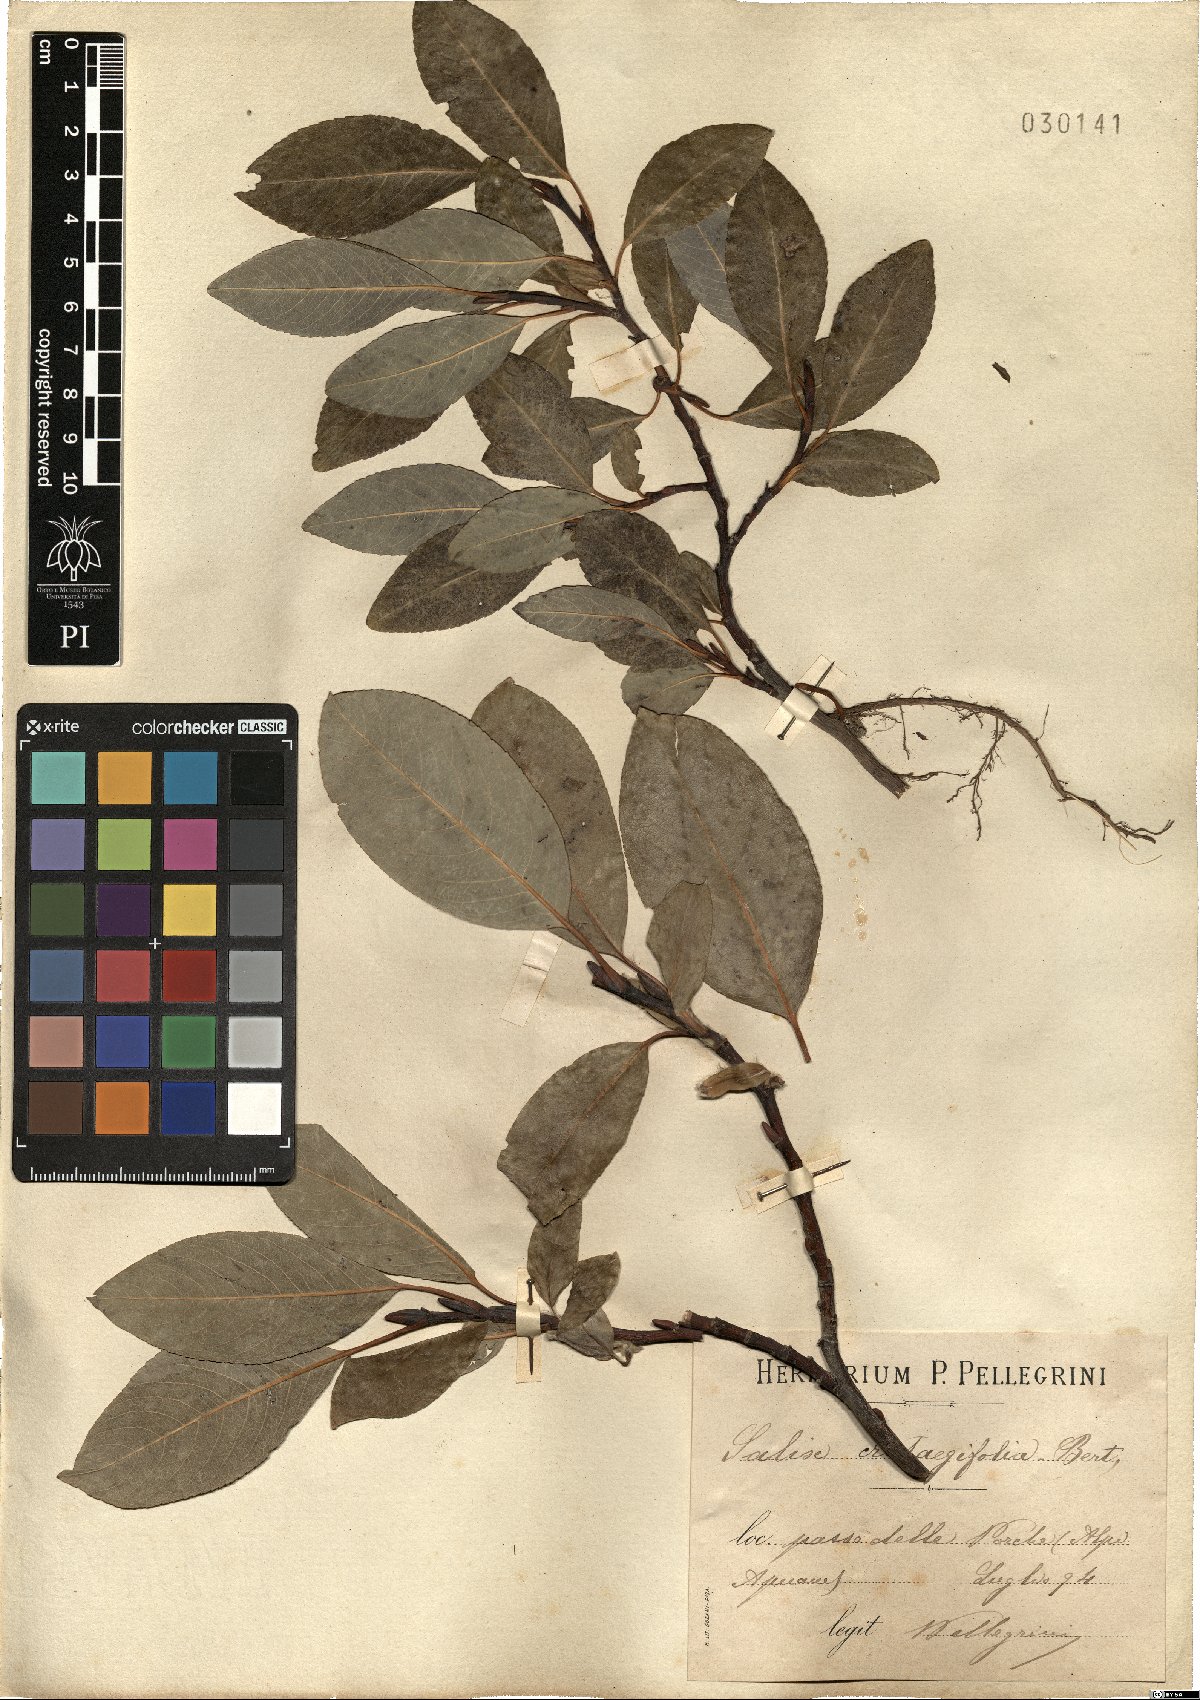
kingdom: Plantae
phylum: Tracheophyta
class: Magnoliopsida
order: Malpighiales
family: Salicaceae
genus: Salix
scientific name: Salix crataegifolia
